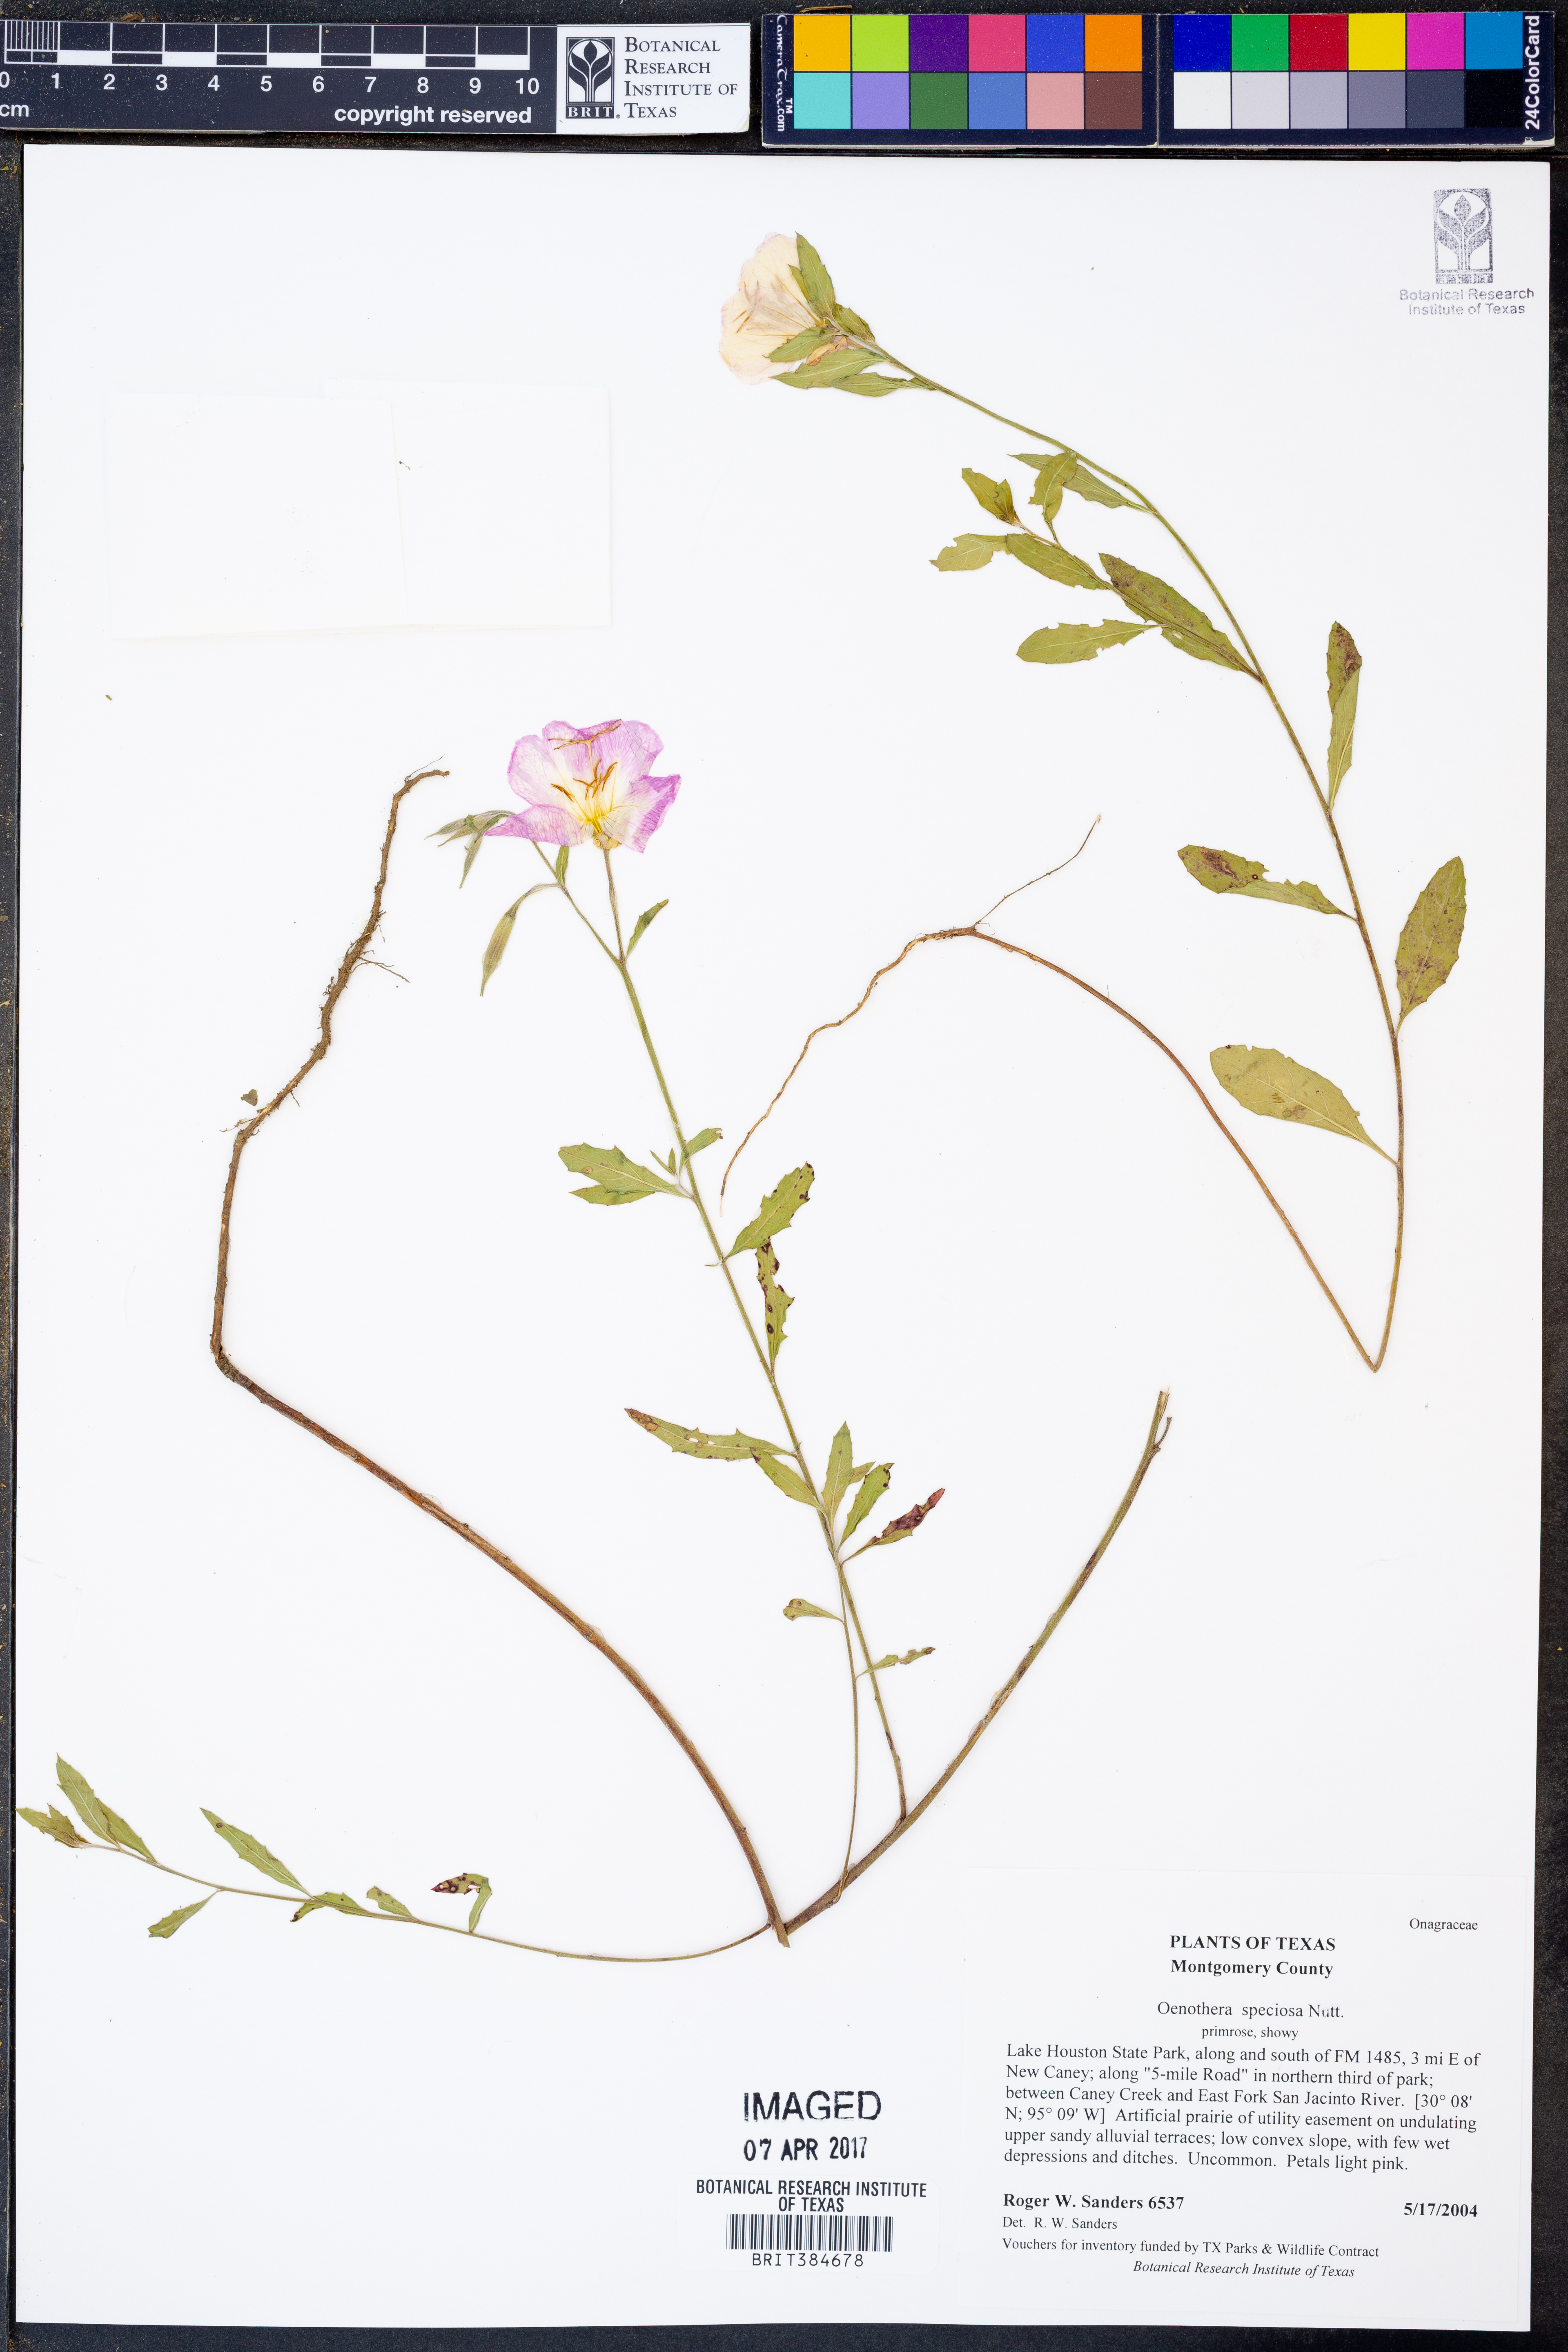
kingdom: Plantae
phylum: Tracheophyta
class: Magnoliopsida
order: Myrtales
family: Onagraceae
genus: Oenothera
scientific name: Oenothera speciosa
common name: White evening-primrose
